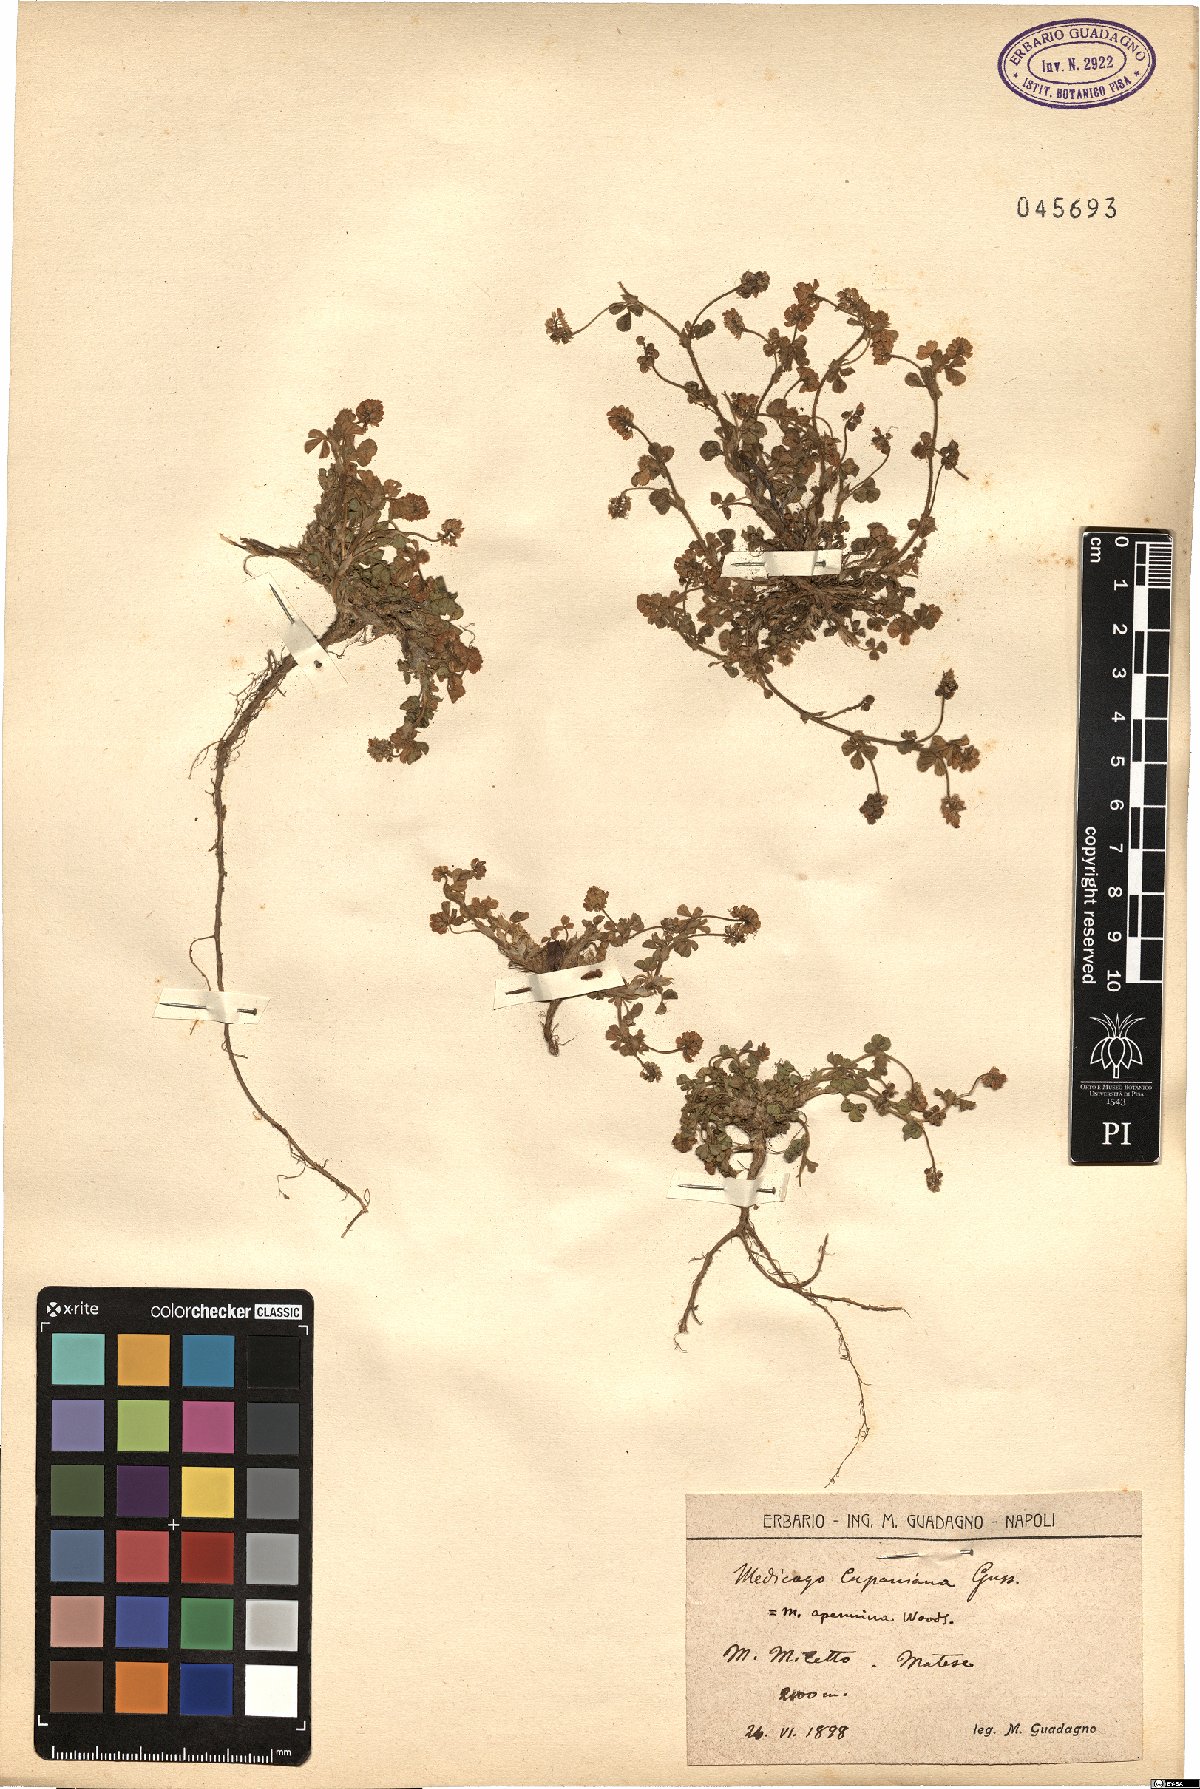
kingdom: Plantae
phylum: Tracheophyta
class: Magnoliopsida
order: Fabales
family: Fabaceae
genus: Medicago
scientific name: Medicago lupulina
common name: Black medick
